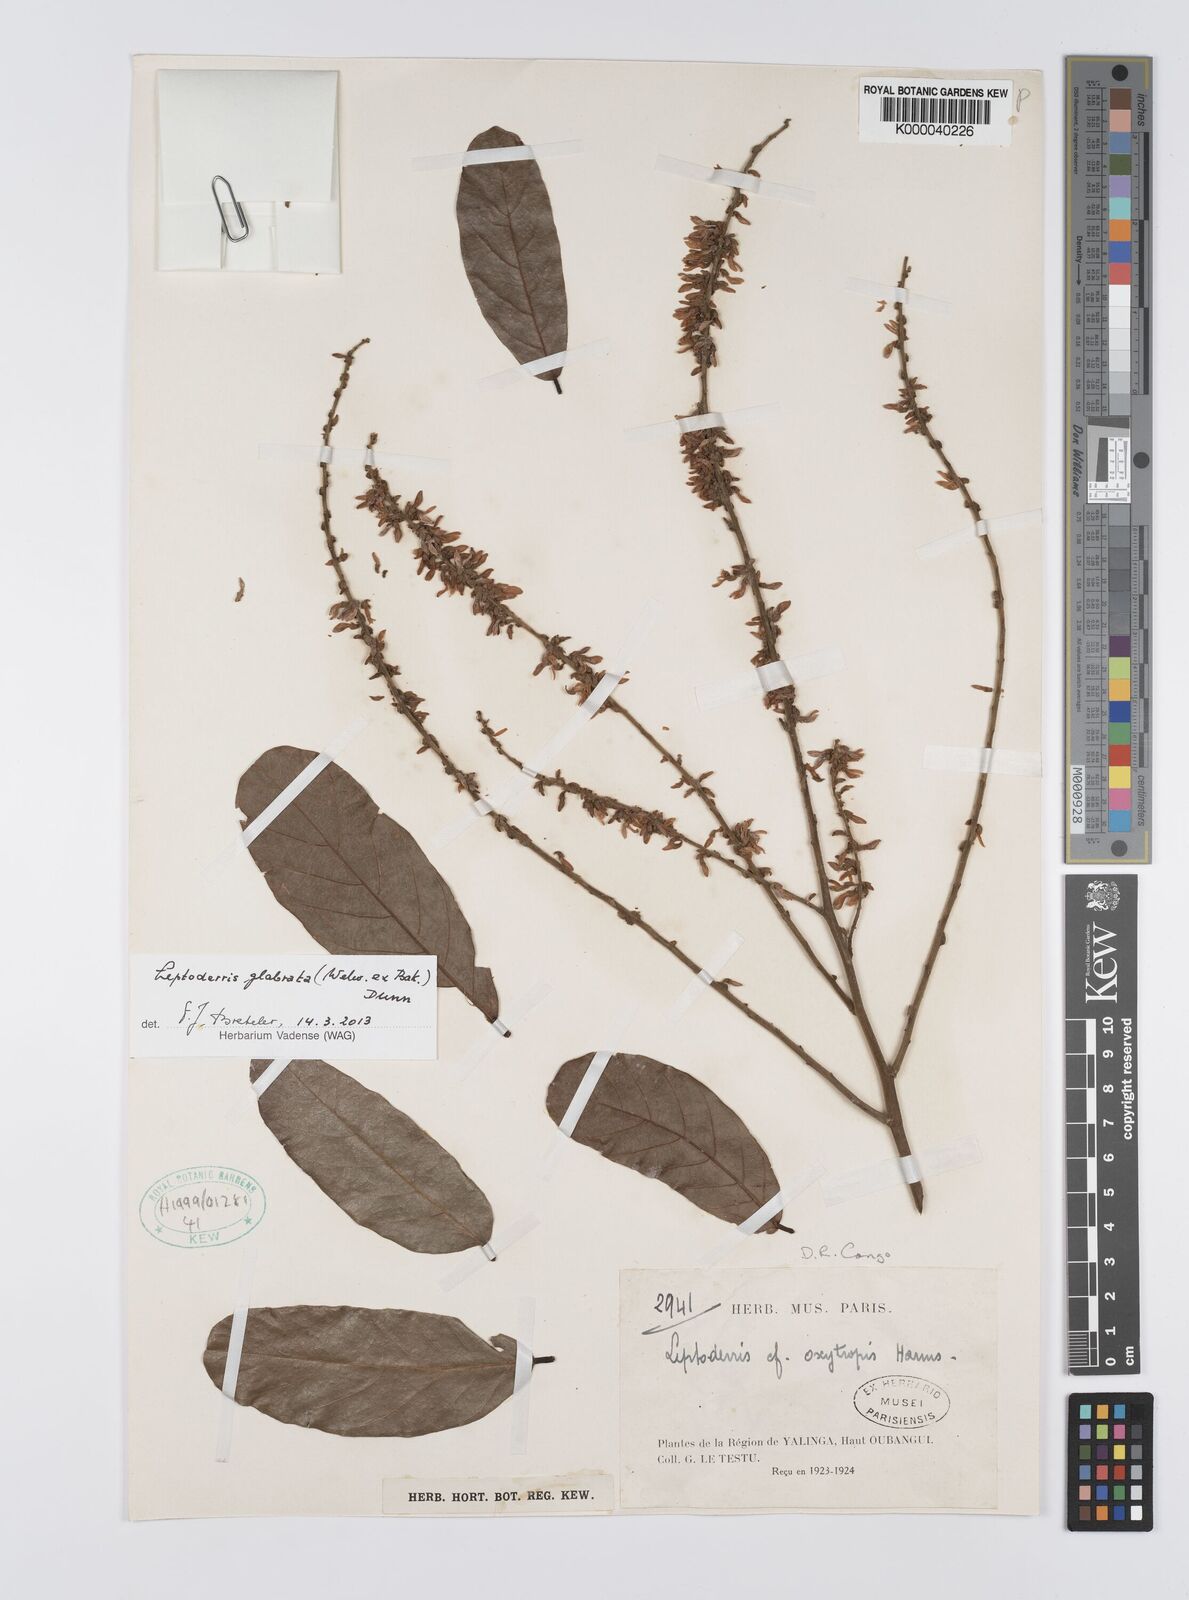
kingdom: Plantae
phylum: Tracheophyta
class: Magnoliopsida
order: Fabales
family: Fabaceae
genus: Leptoderris
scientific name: Leptoderris
